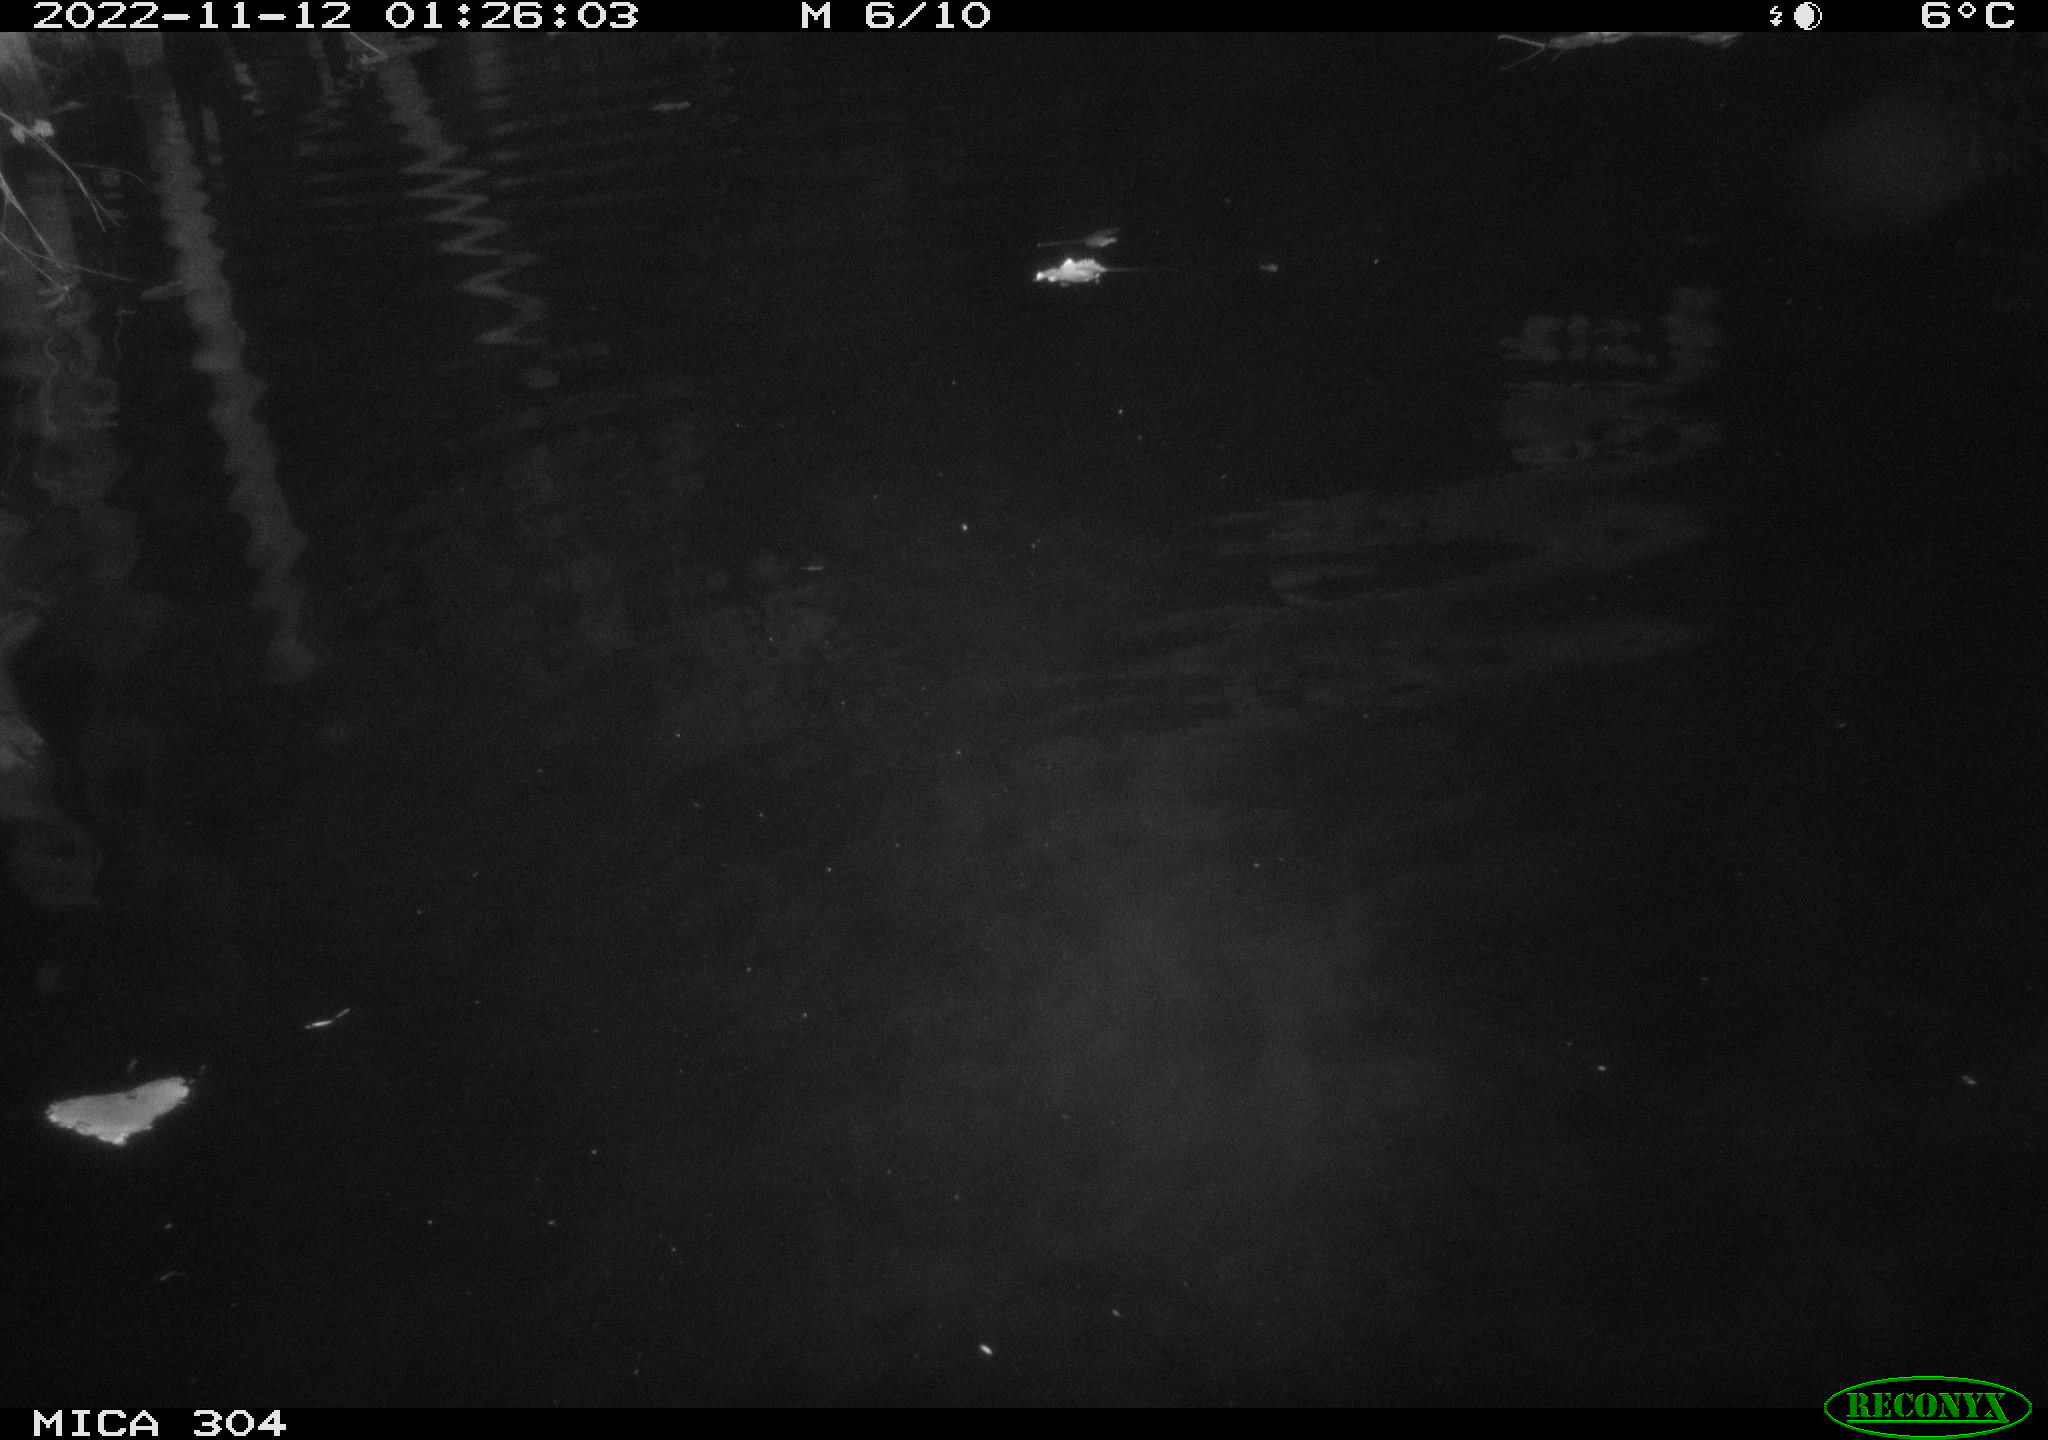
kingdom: Animalia
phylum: Chordata
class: Mammalia
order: Rodentia
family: Cricetidae
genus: Ondatra
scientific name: Ondatra zibethicus
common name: Muskrat
